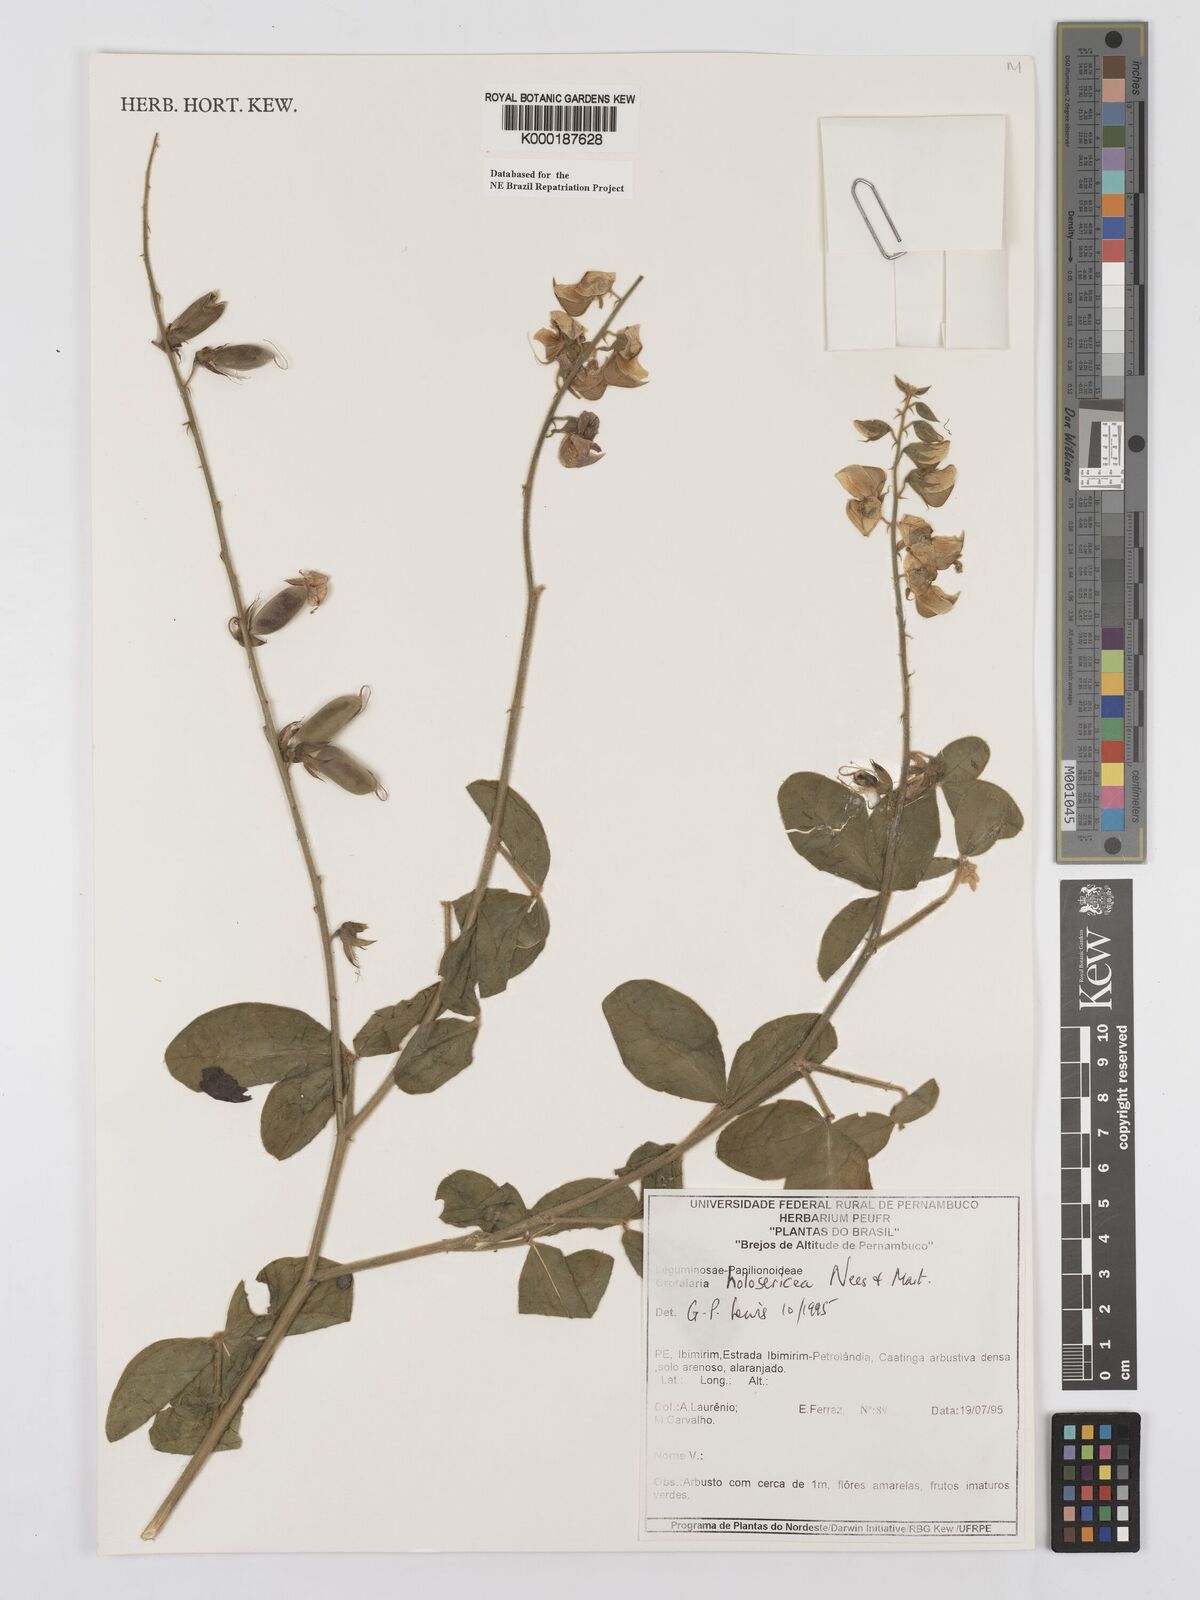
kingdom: Plantae
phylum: Tracheophyta
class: Magnoliopsida
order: Fabales
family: Fabaceae
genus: Crotalaria
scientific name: Crotalaria holosericea
